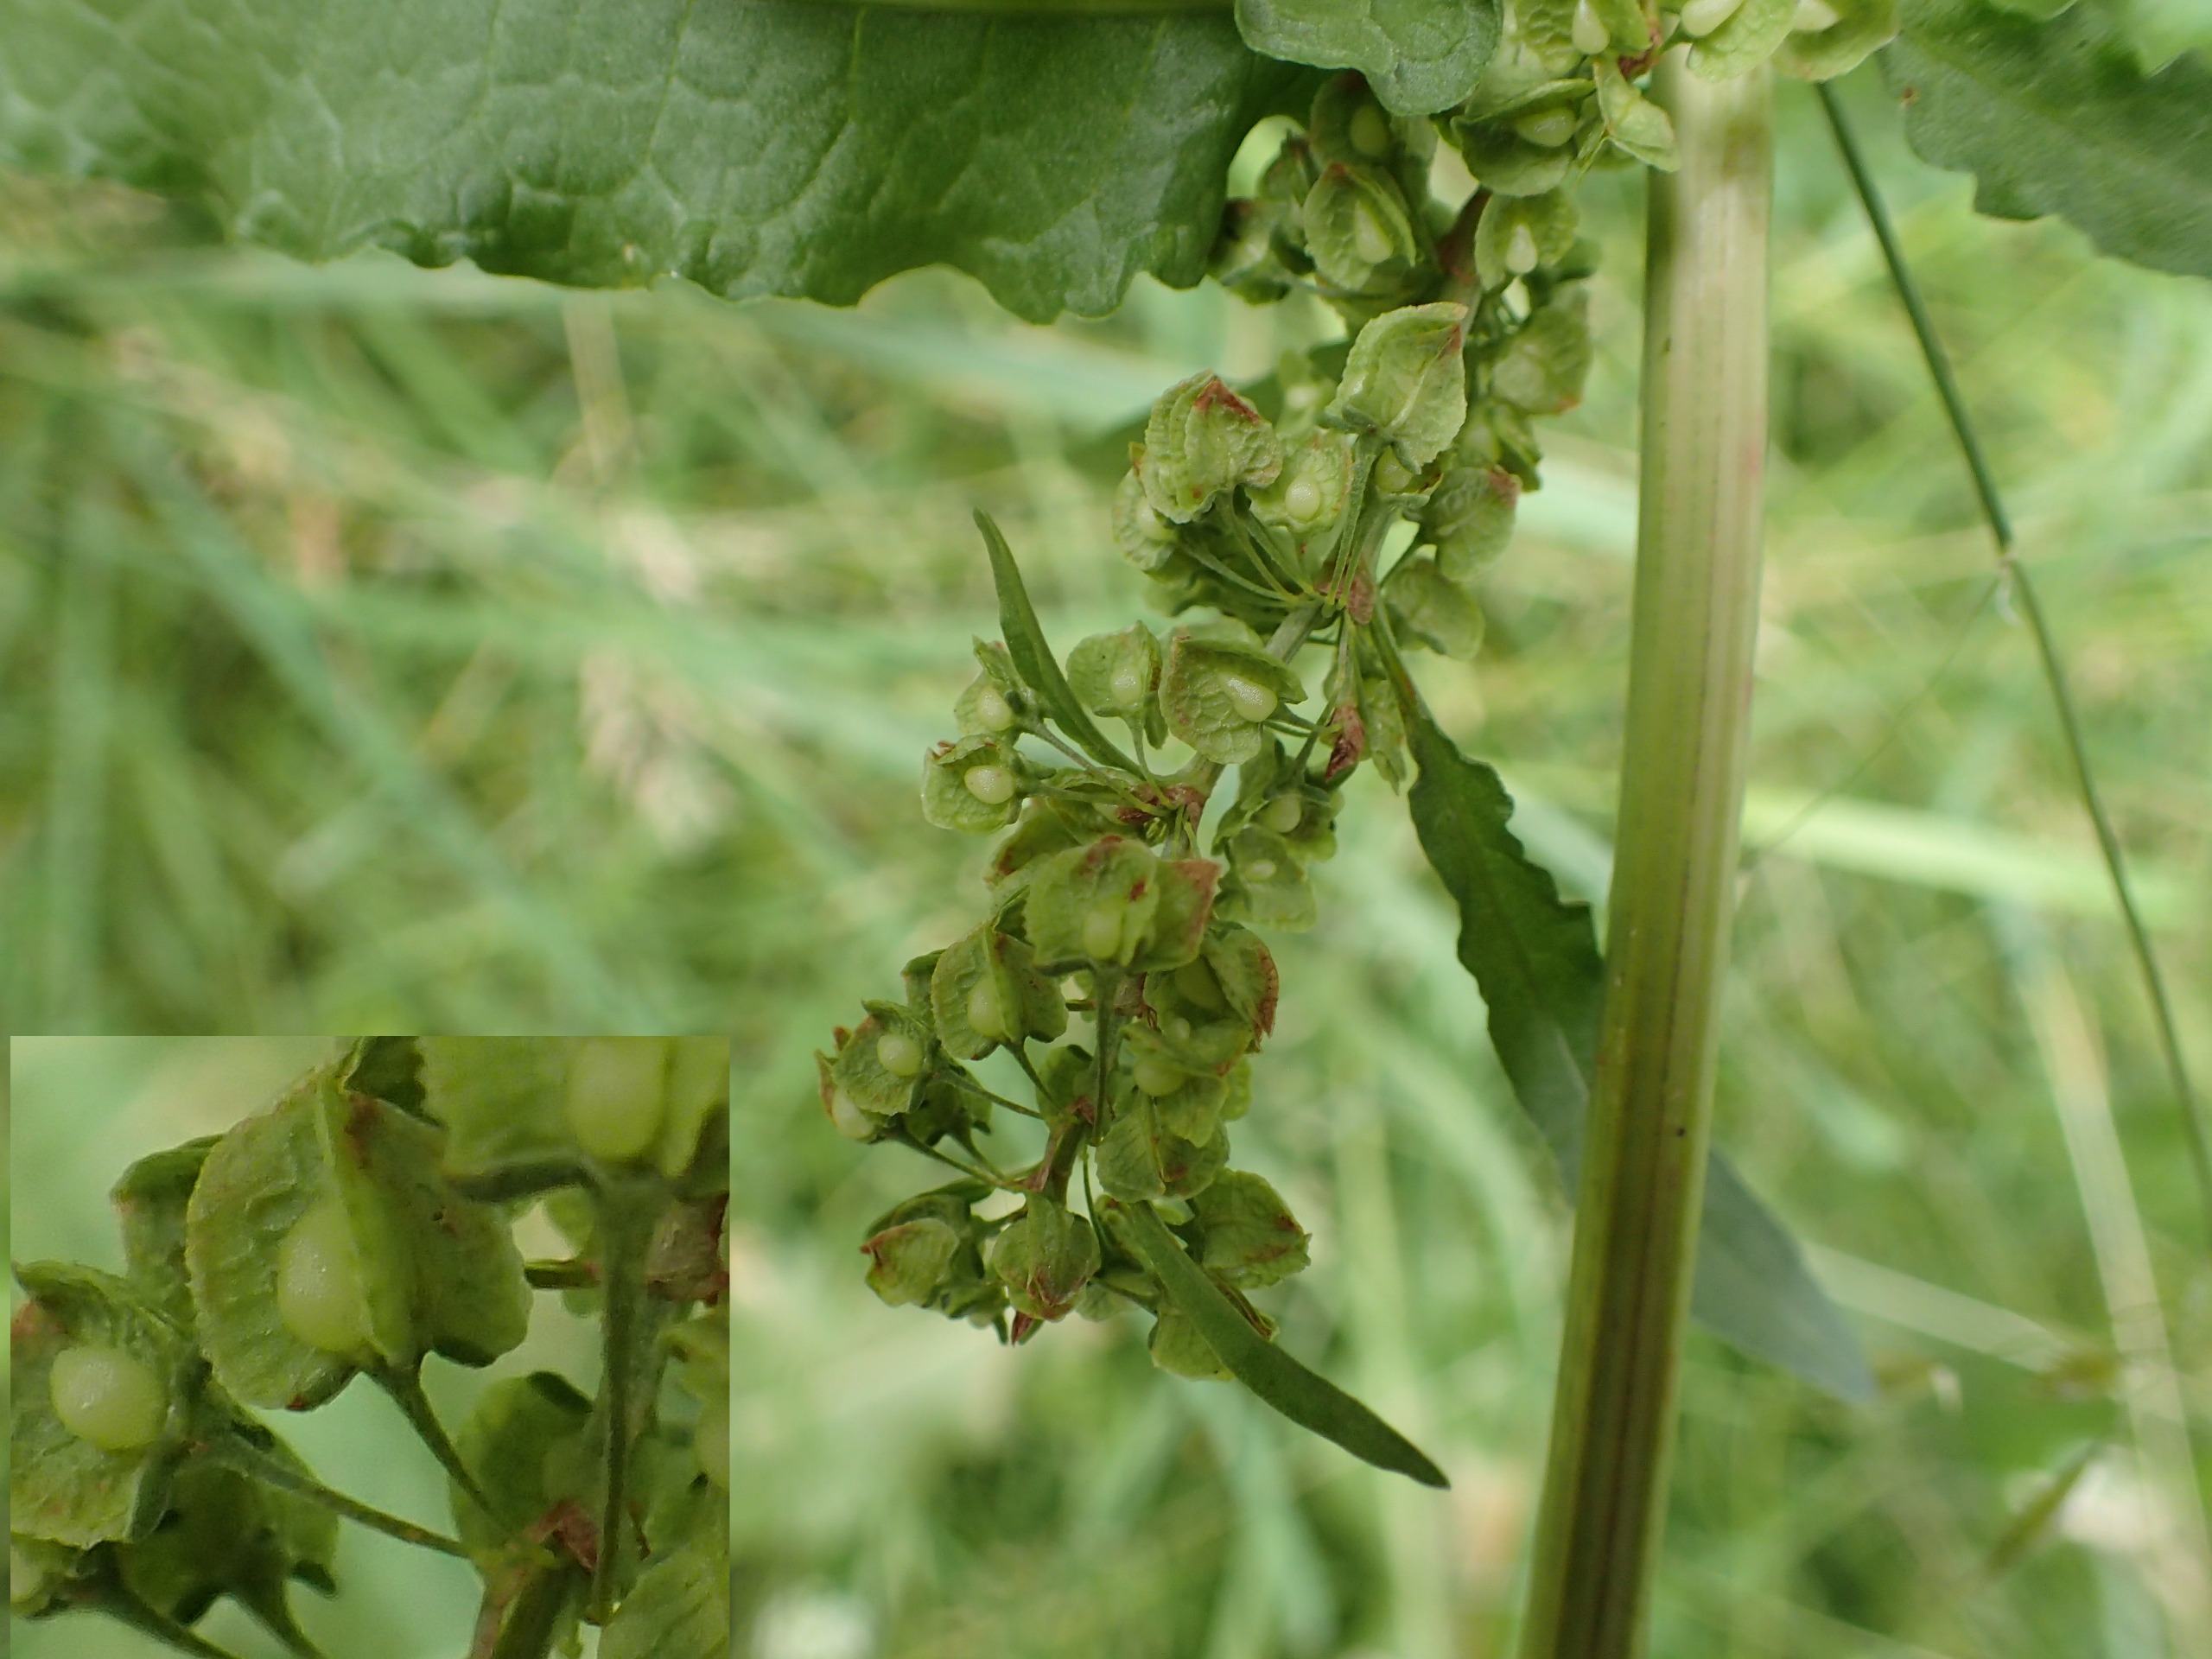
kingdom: Plantae
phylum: Tracheophyta
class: Magnoliopsida
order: Caryophyllales
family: Polygonaceae
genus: Rumex
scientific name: Rumex crispus
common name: Kruset skræppe
